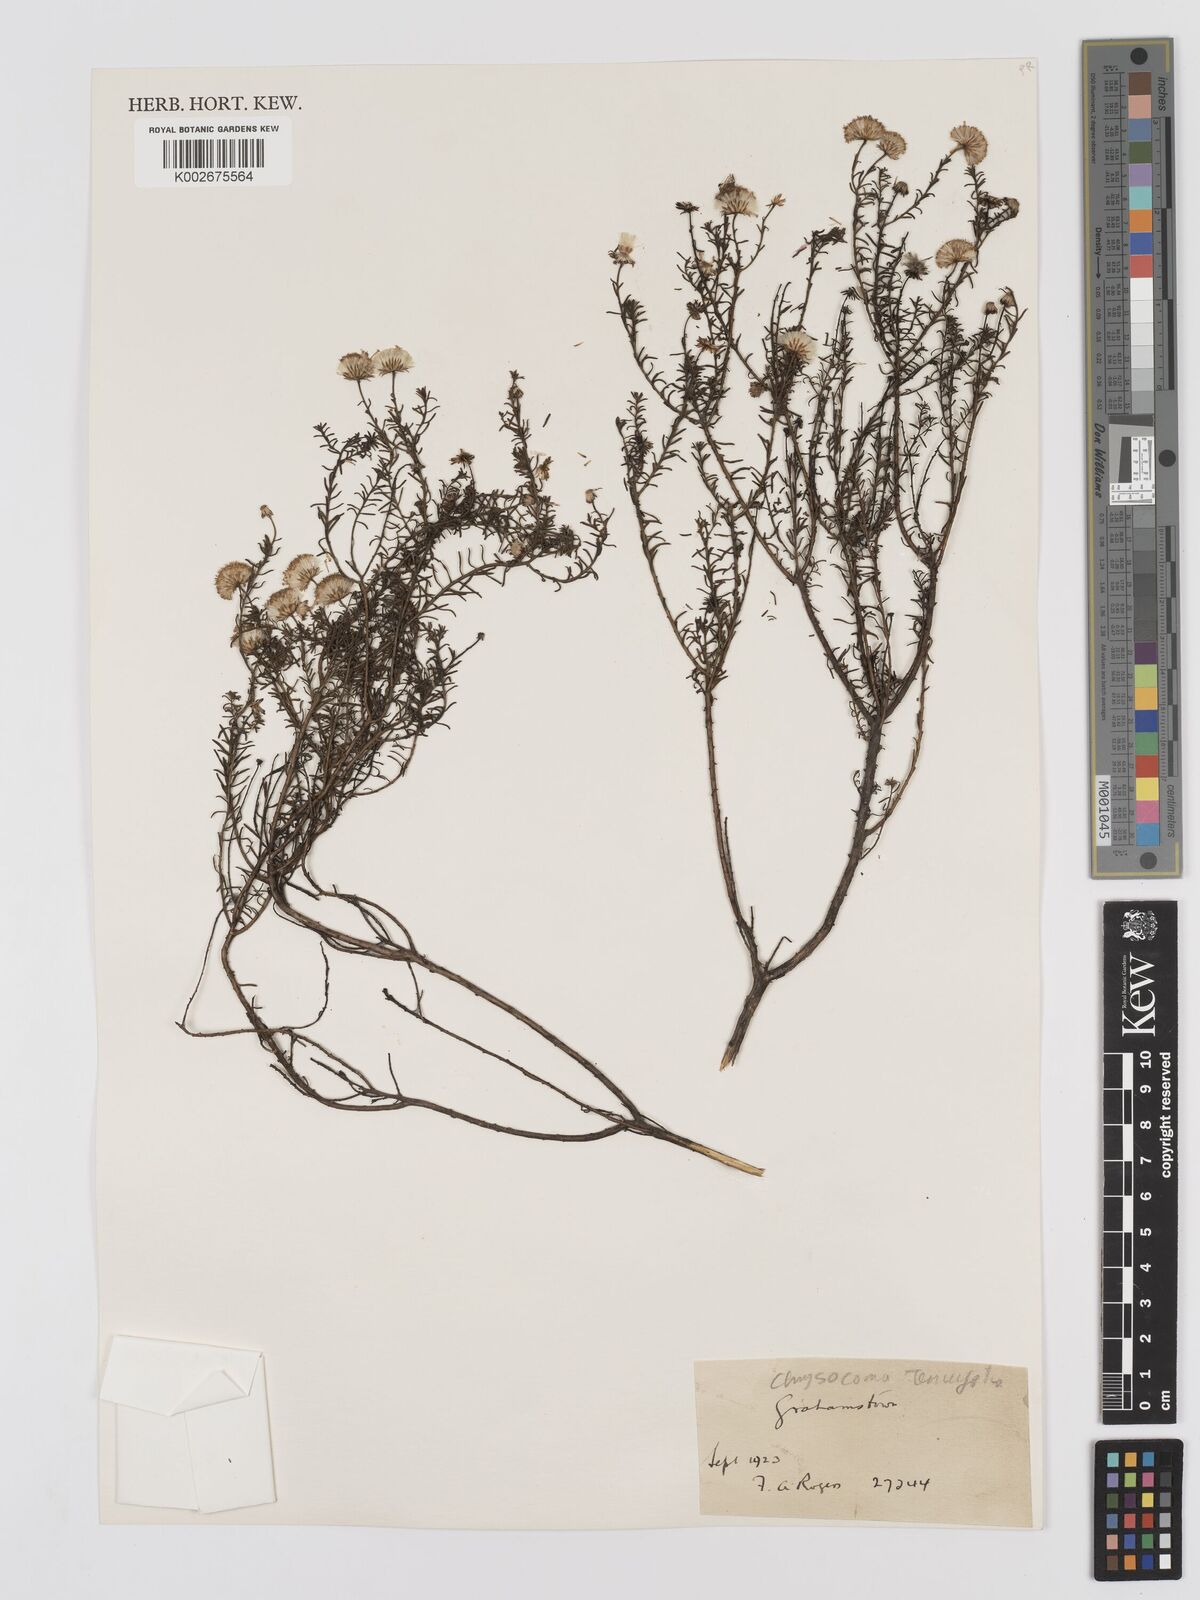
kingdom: Plantae
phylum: Tracheophyta
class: Magnoliopsida
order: Asterales
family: Asteraceae
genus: Chrysocoma
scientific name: Chrysocoma ciliata
